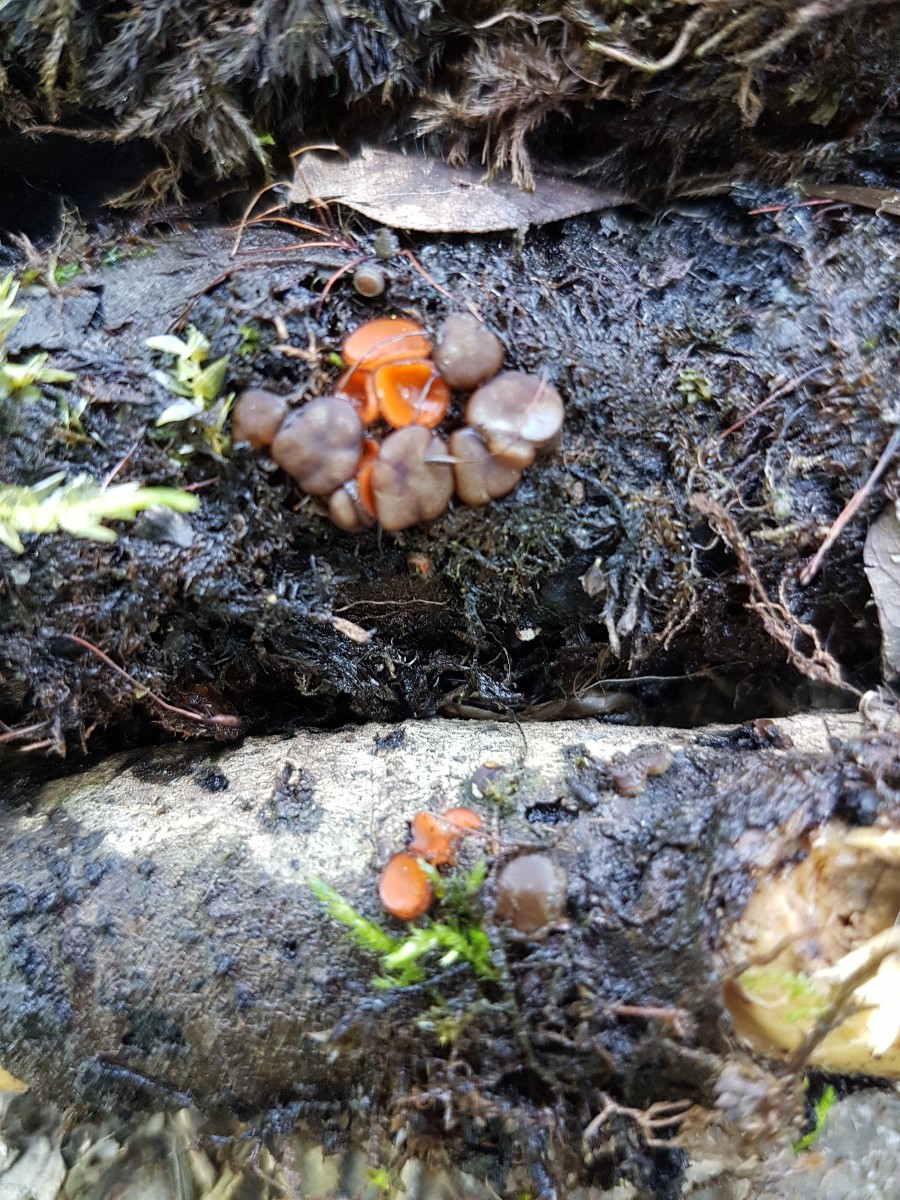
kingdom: Fungi
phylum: Ascomycota
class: Pezizomycetes
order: Pezizales
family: Pezizaceae
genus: Adelphella
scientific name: Adelphella babingtonii
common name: almindelig bækbæger
